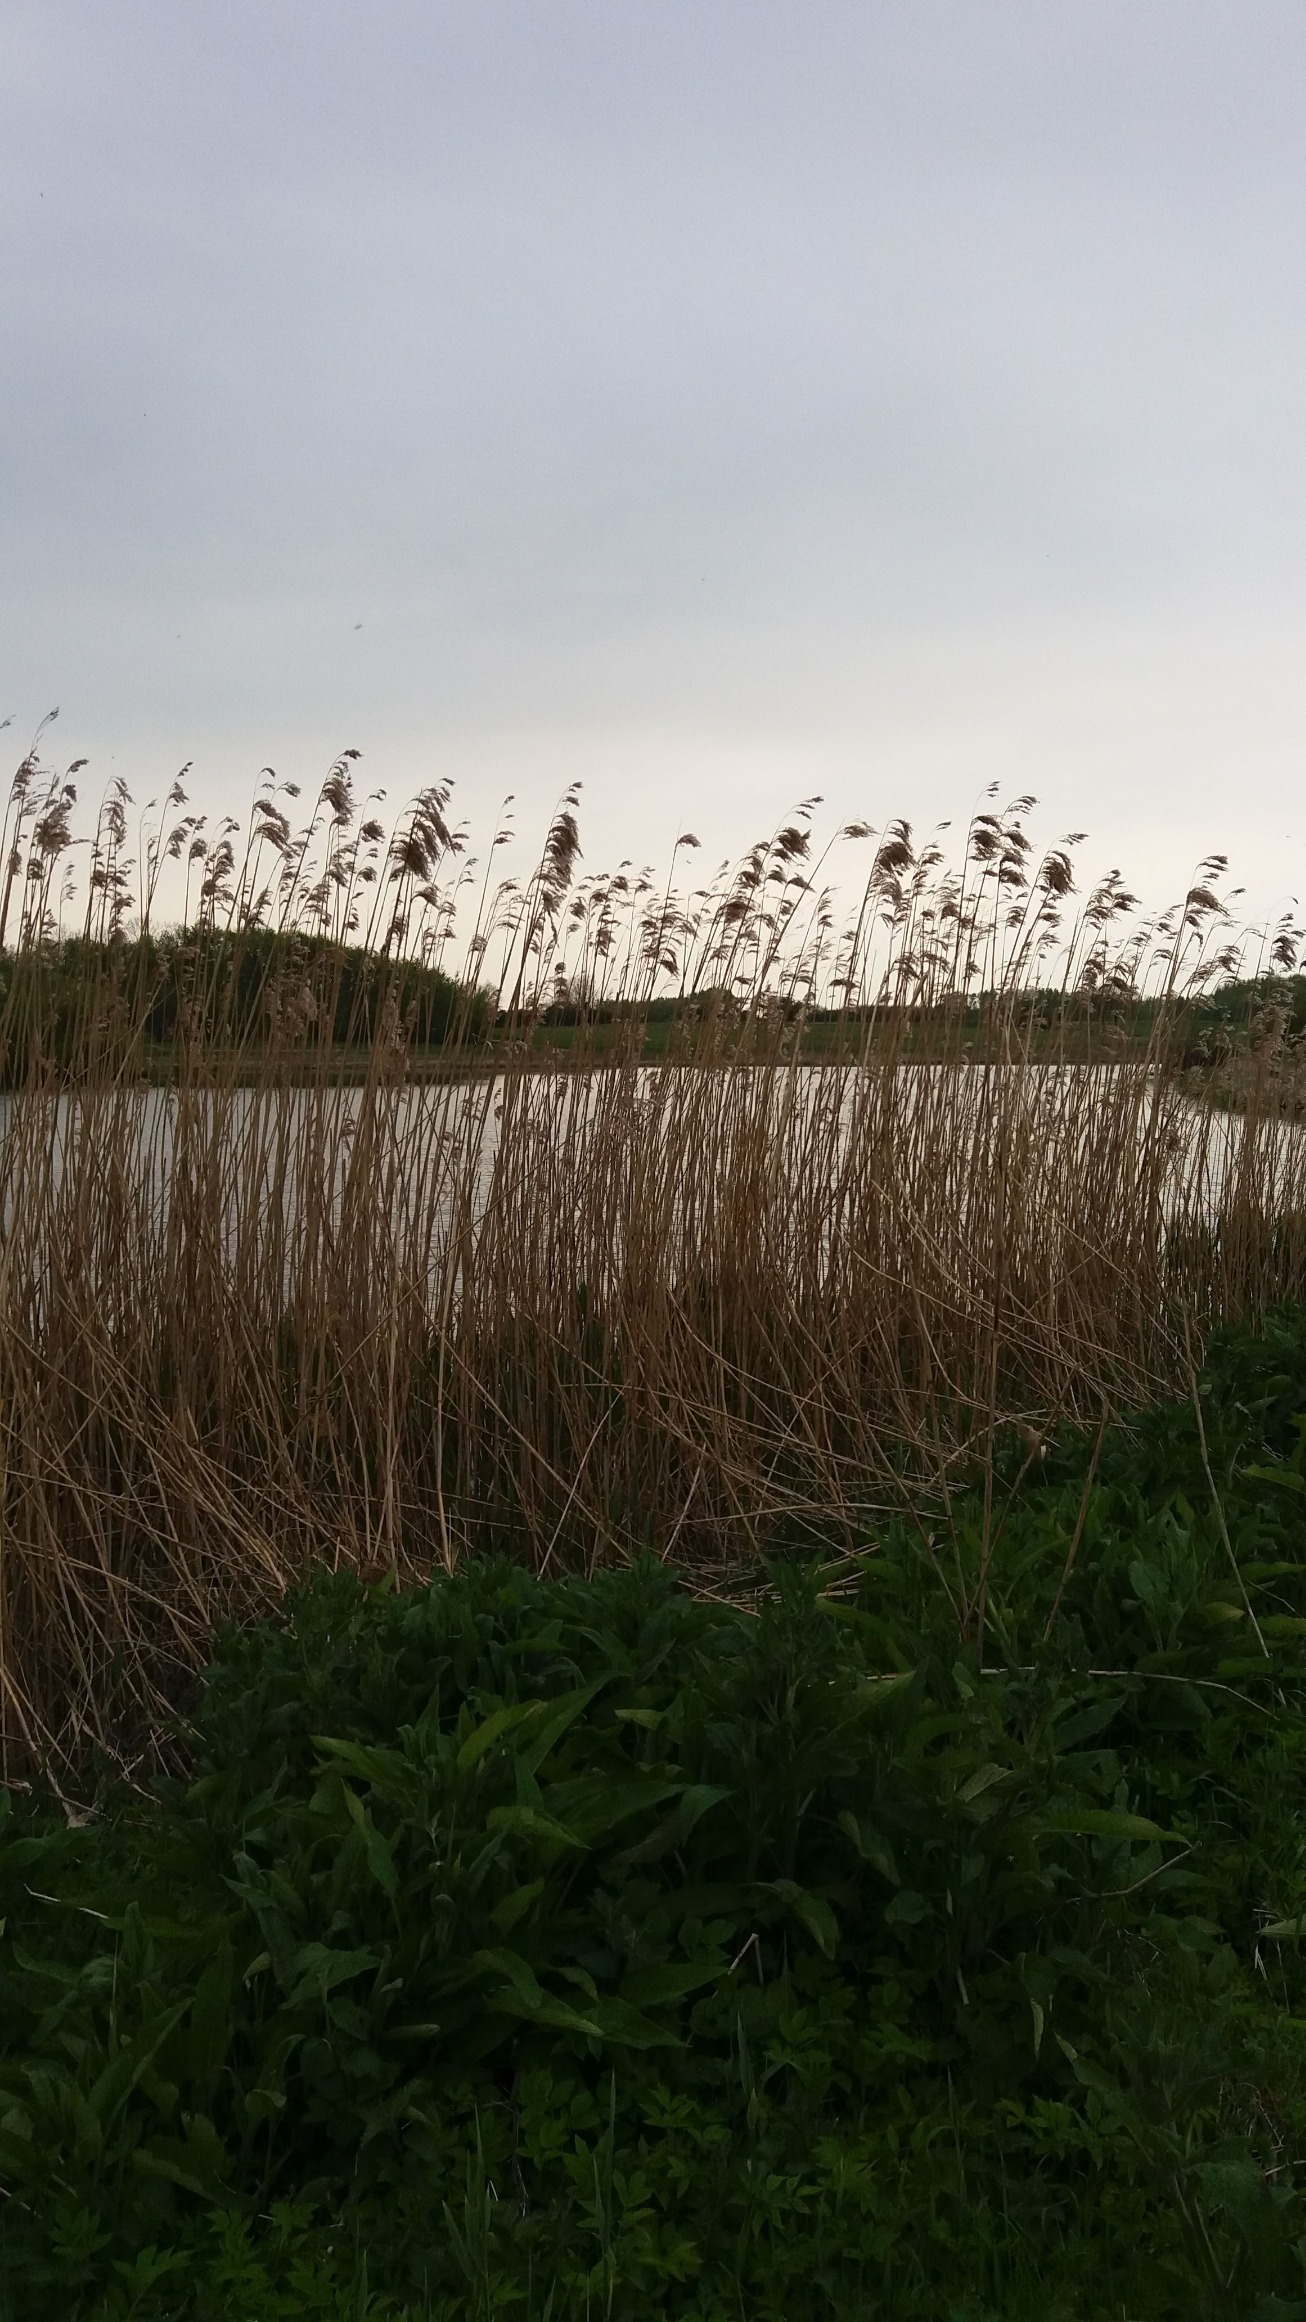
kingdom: Plantae
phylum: Tracheophyta
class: Liliopsida
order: Poales
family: Poaceae
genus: Phragmites
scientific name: Phragmites australis
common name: Tagrør
